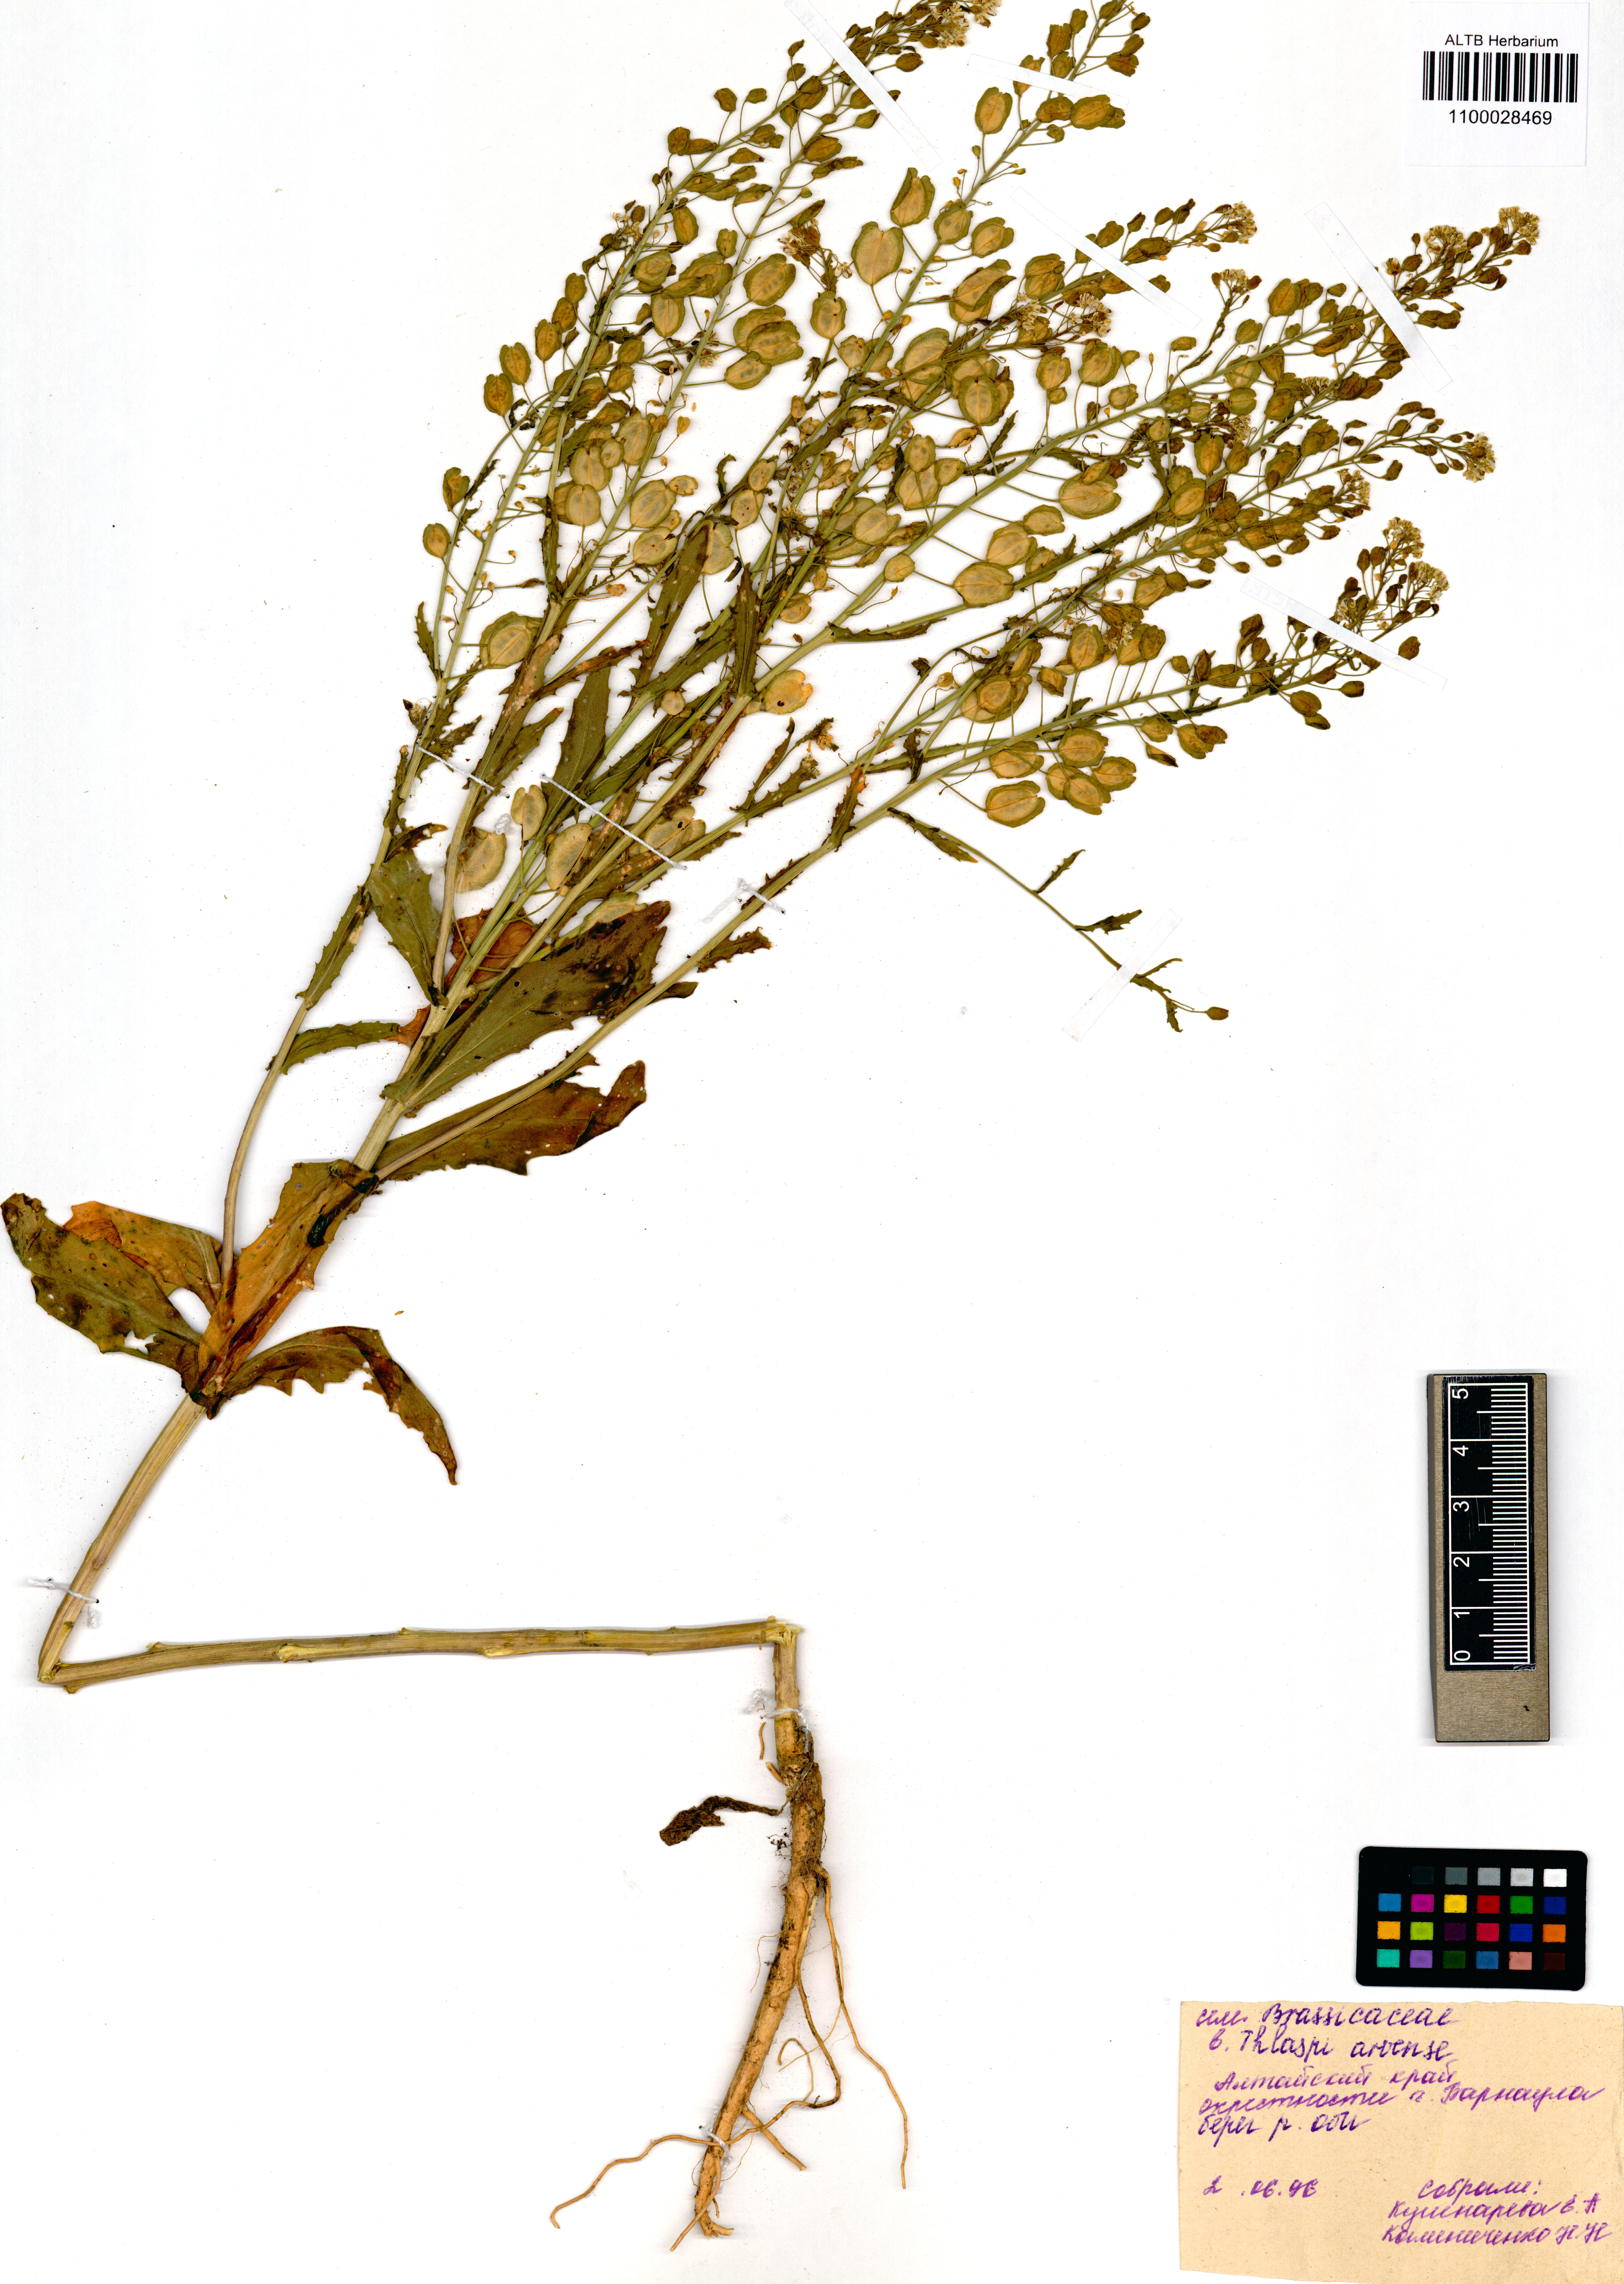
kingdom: Plantae
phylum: Tracheophyta
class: Magnoliopsida
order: Brassicales
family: Brassicaceae
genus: Thlaspi
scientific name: Thlaspi arvense
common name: Field pennycress
